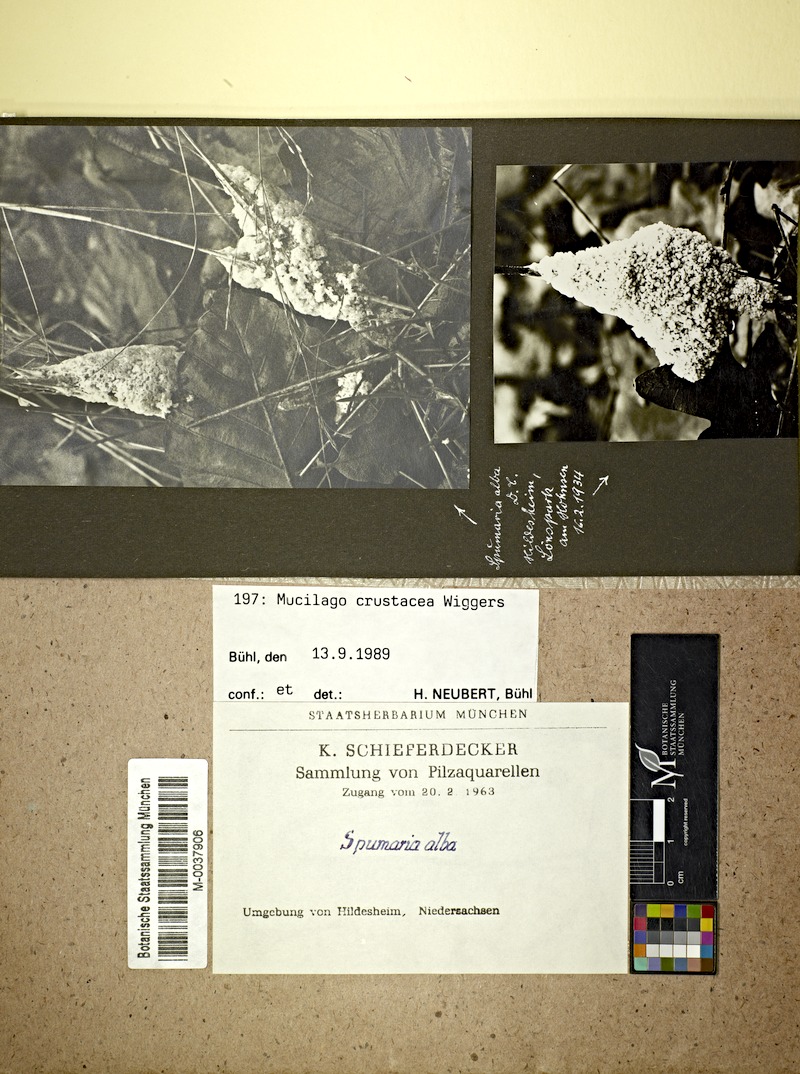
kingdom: Protozoa
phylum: Mycetozoa
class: Myxomycetes
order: Physarales
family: Didymiaceae
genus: Mucilago
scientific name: Mucilago crustacea
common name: Dog vomit slime mould
